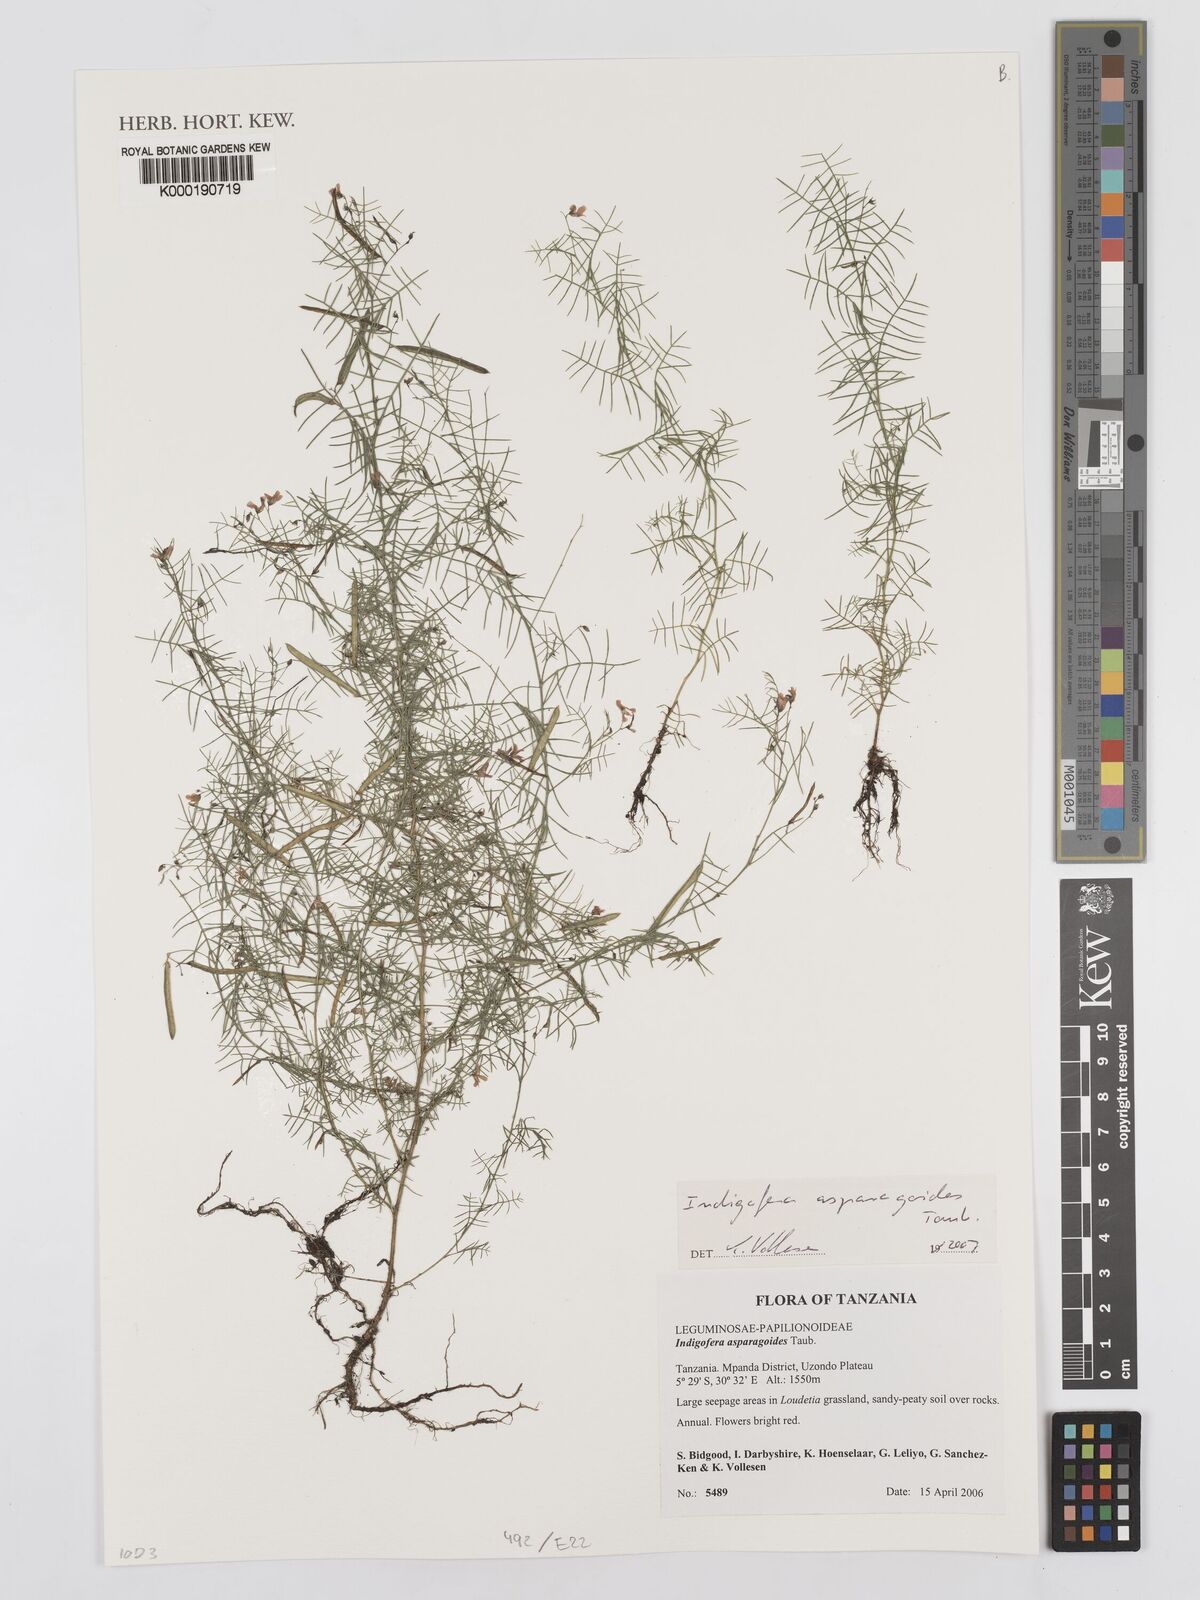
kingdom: Plantae
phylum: Tracheophyta
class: Magnoliopsida
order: Fabales
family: Fabaceae
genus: Microcharis
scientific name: Microcharis asparagoides
